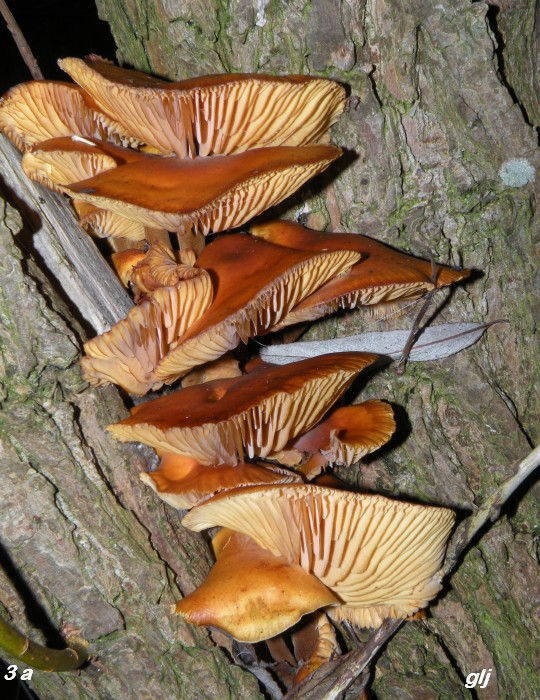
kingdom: Fungi
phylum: Basidiomycota
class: Agaricomycetes
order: Agaricales
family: Physalacriaceae
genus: Flammulina
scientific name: Flammulina elastica
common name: pile-fløjlsfod
